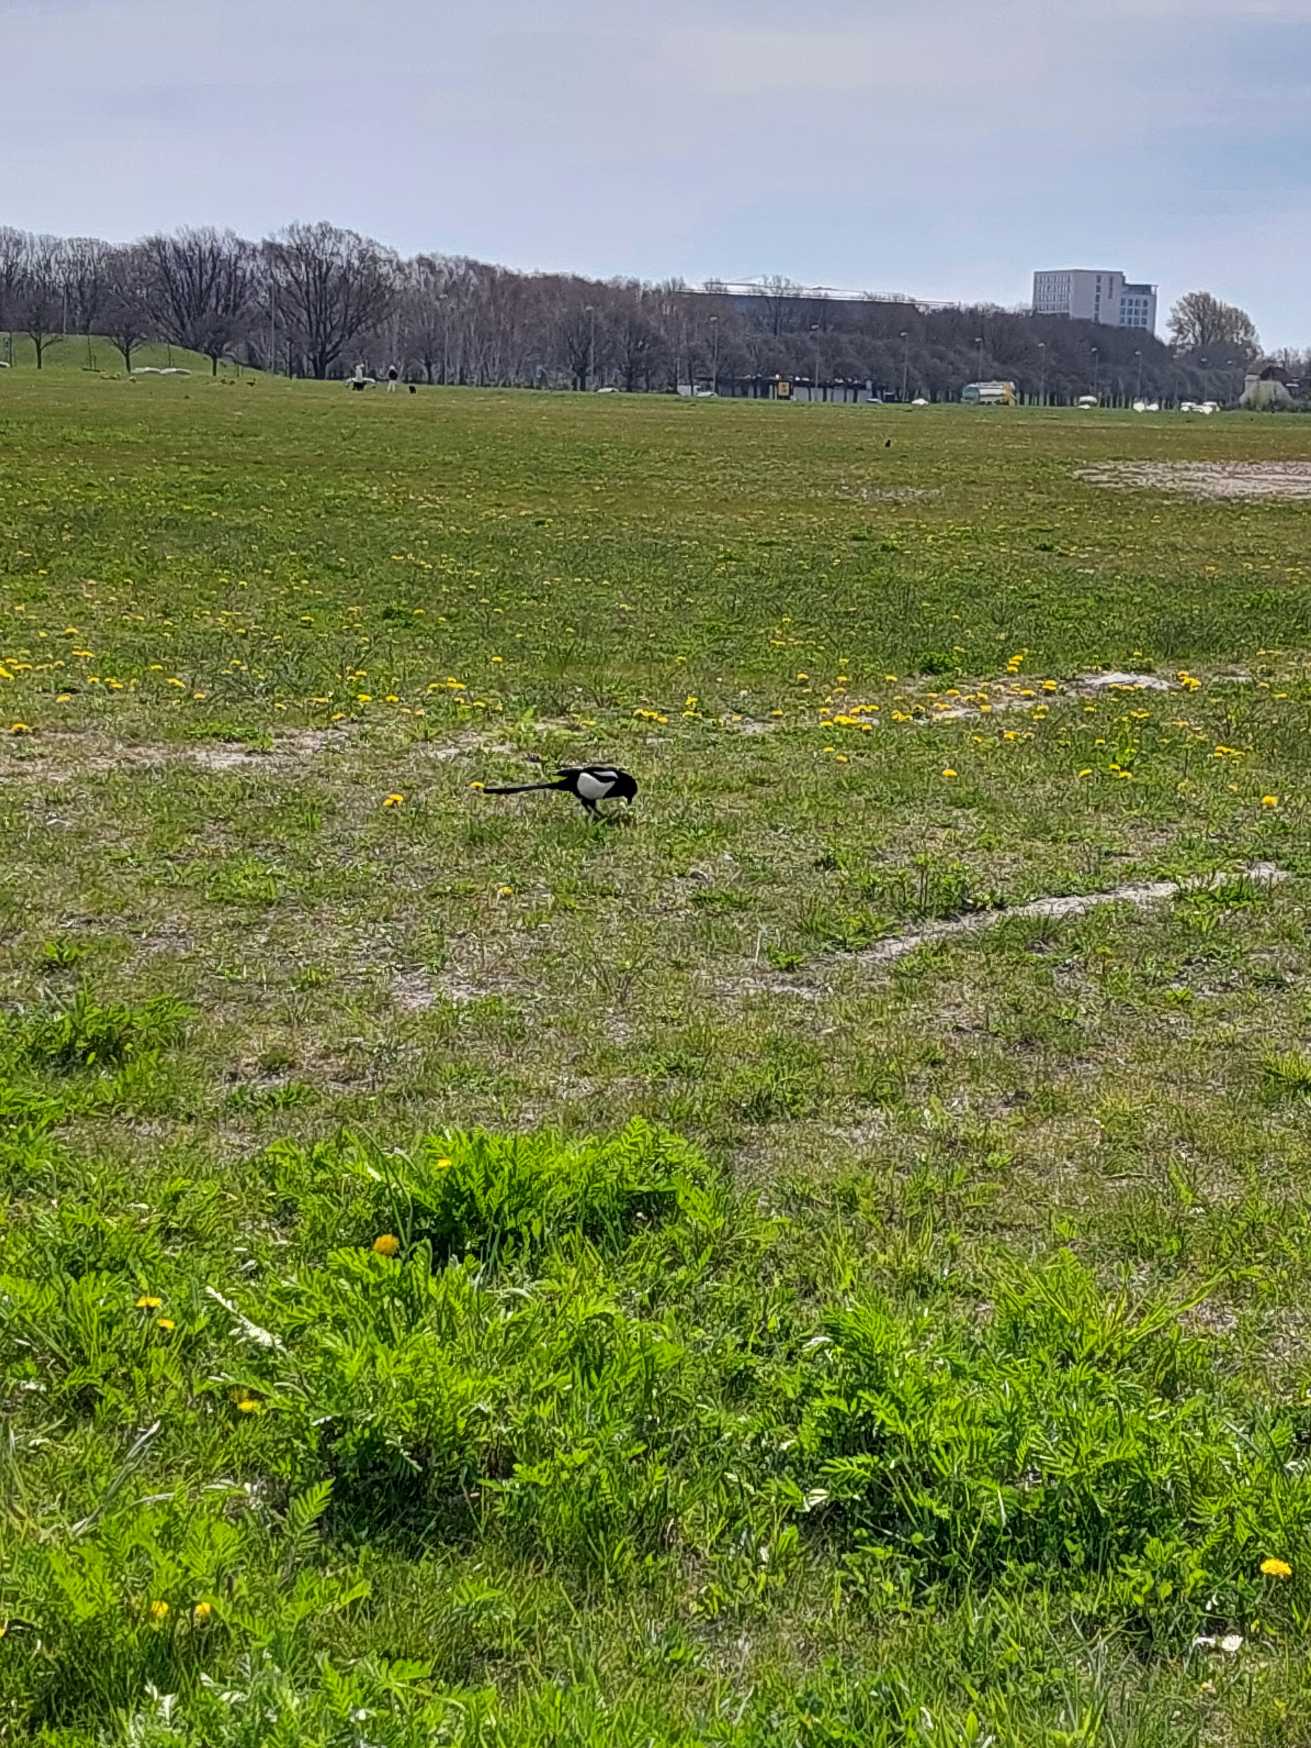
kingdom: Animalia
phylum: Chordata
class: Aves
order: Passeriformes
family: Corvidae
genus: Pica
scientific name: Pica pica
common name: Husskade
